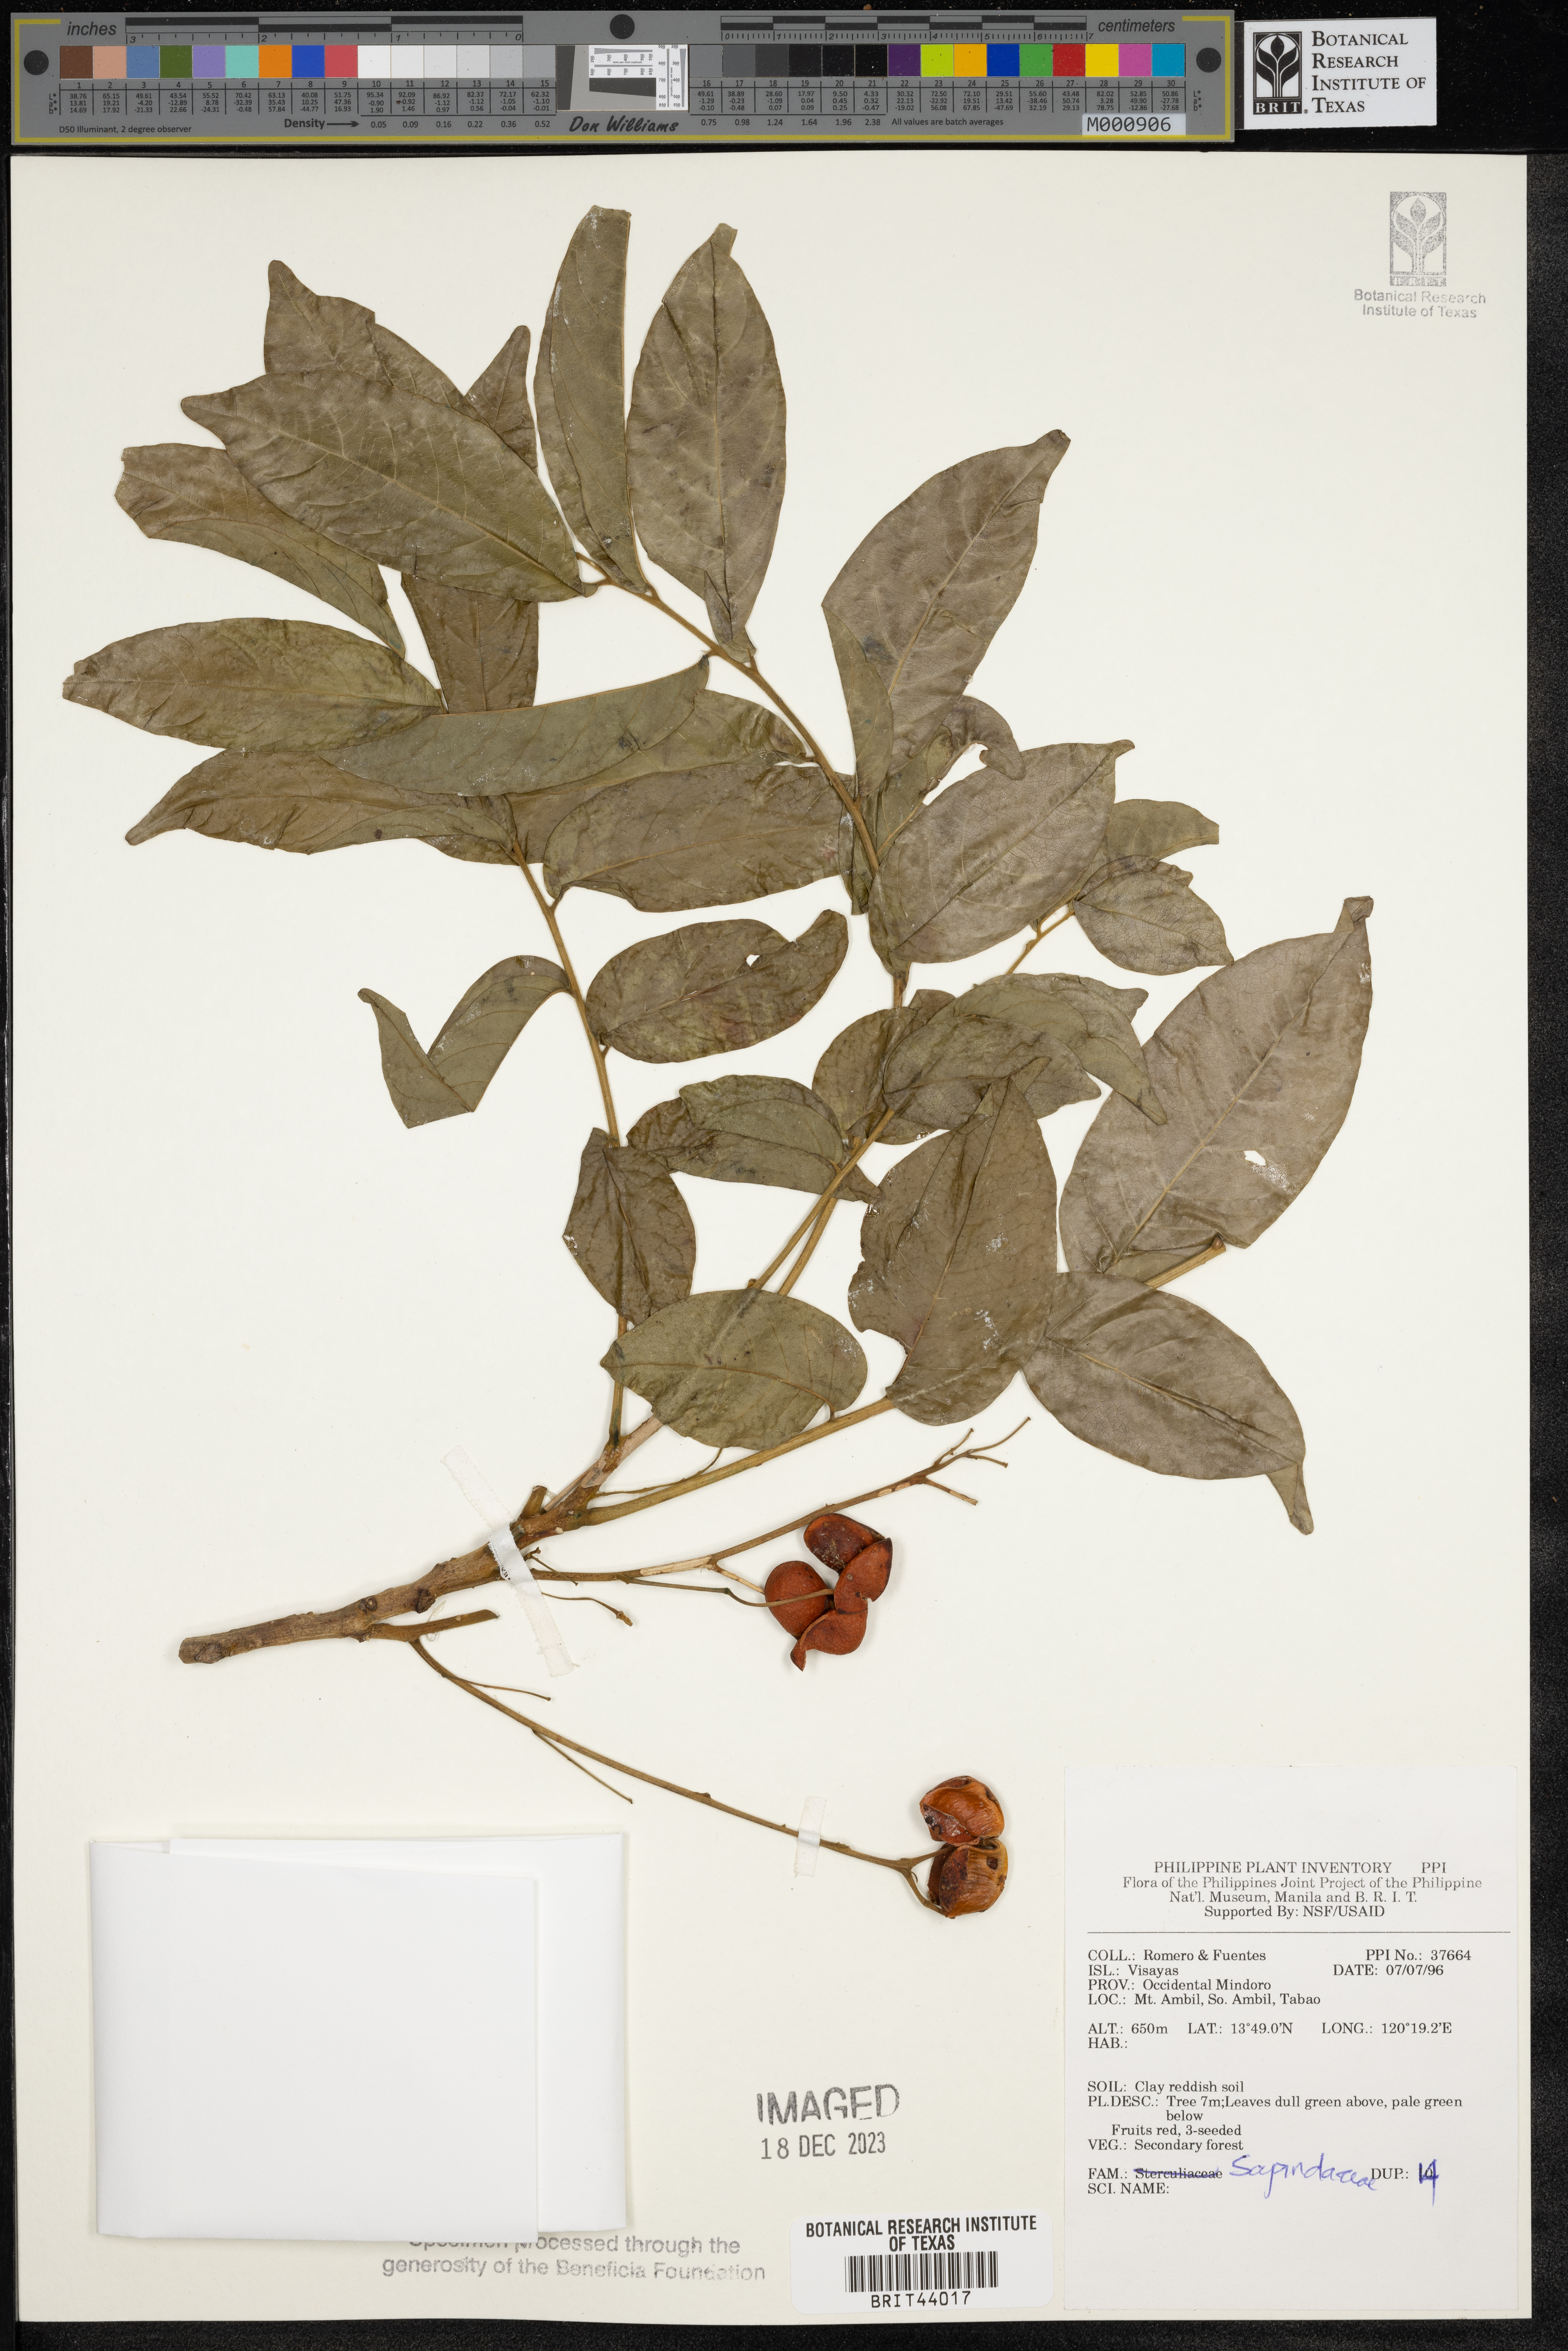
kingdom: Plantae
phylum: Tracheophyta
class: Magnoliopsida
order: Sapindales
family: Sapindaceae
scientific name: Sapindaceae
